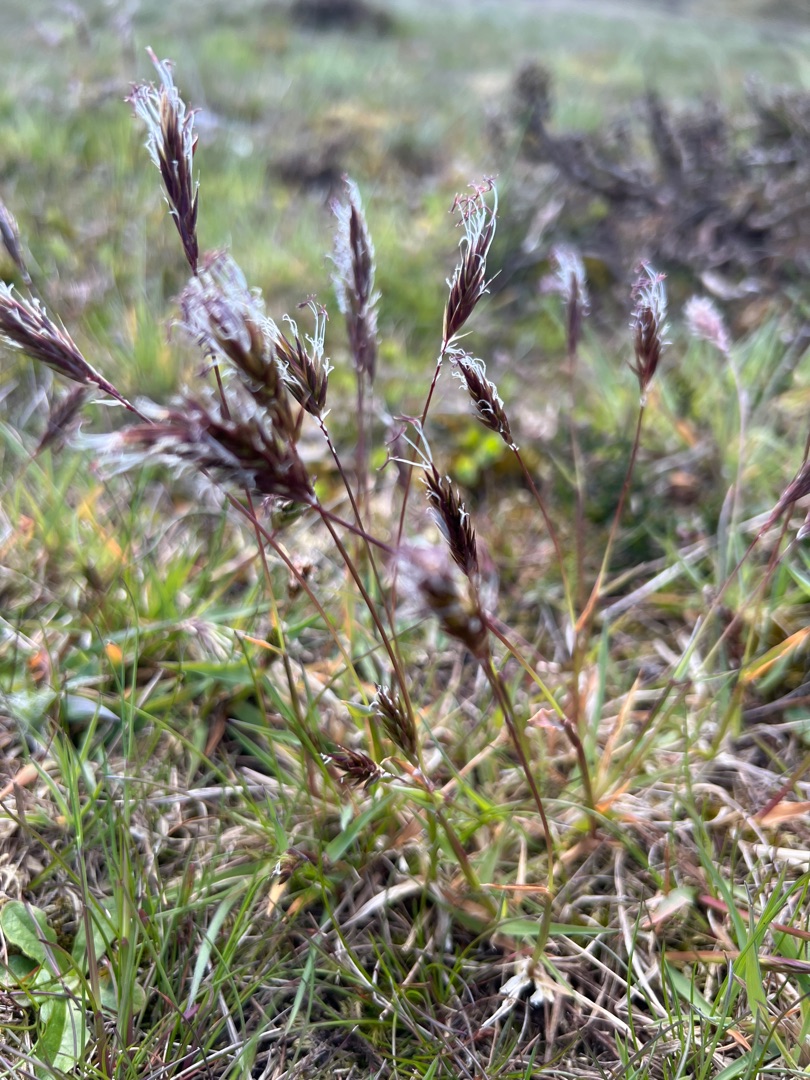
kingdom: Plantae
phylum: Tracheophyta
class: Liliopsida
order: Poales
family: Poaceae
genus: Anthoxanthum
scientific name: Anthoxanthum odoratum
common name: Vellugtende gulaks
